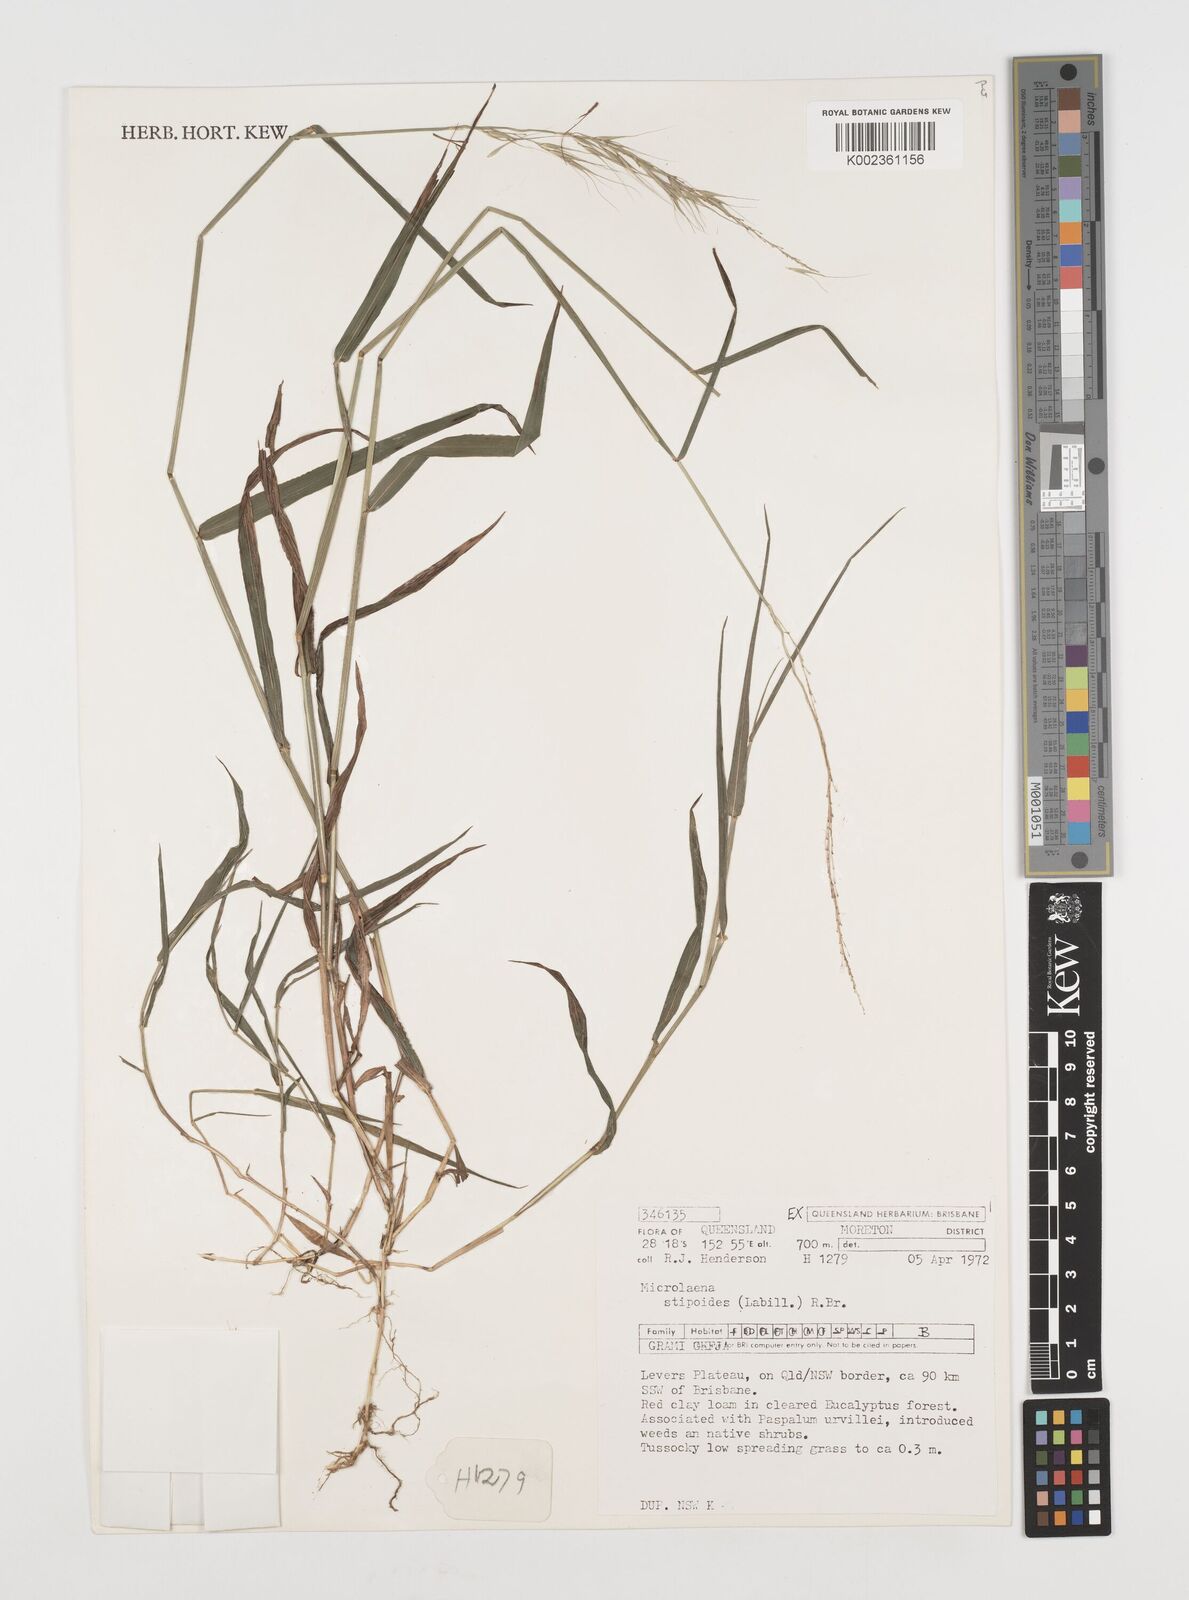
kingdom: Plantae
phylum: Tracheophyta
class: Liliopsida
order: Poales
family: Poaceae
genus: Microlaena
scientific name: Microlaena stipoides
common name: Meadow ricegrass
